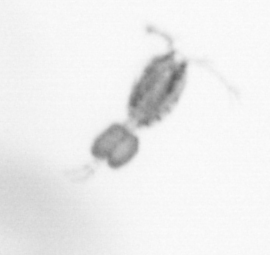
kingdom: Animalia
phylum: Arthropoda
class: Copepoda
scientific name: Copepoda
